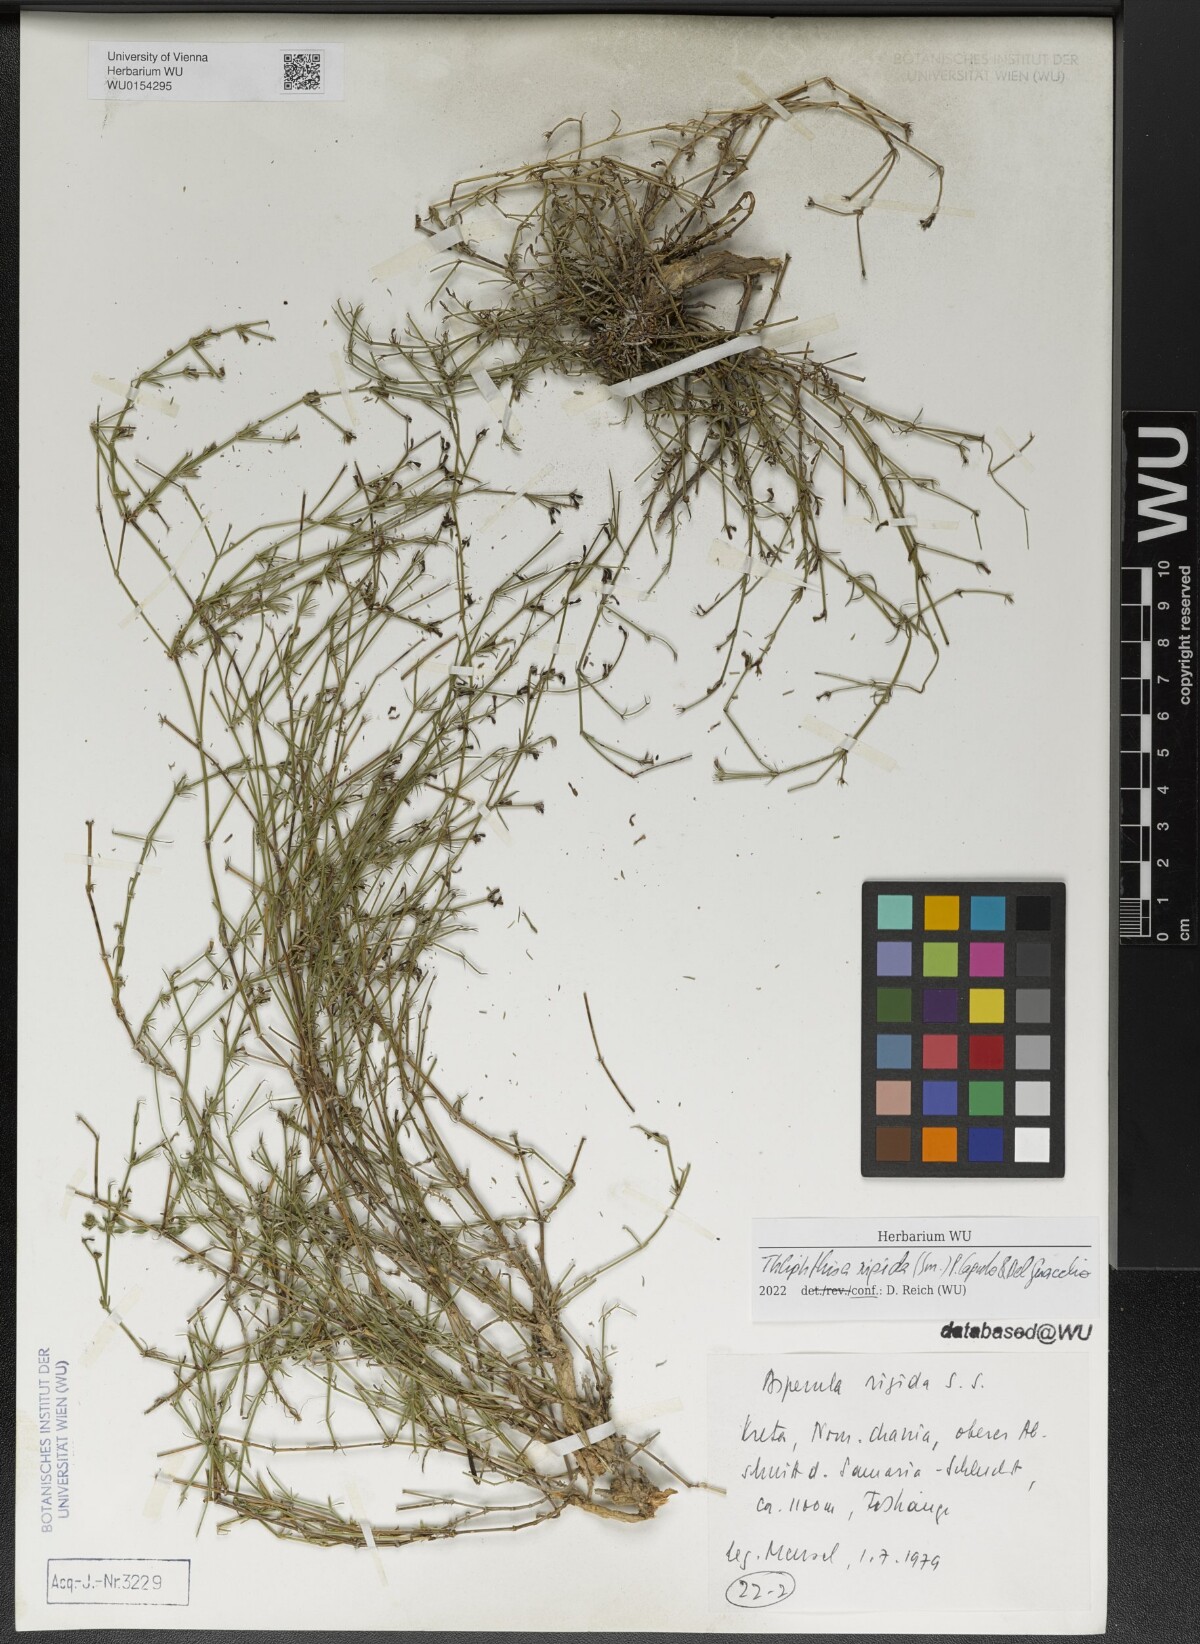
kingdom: Plantae
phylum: Tracheophyta
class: Magnoliopsida
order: Gentianales
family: Rubiaceae
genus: Thliphthisa
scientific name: Thliphthisa rigida
